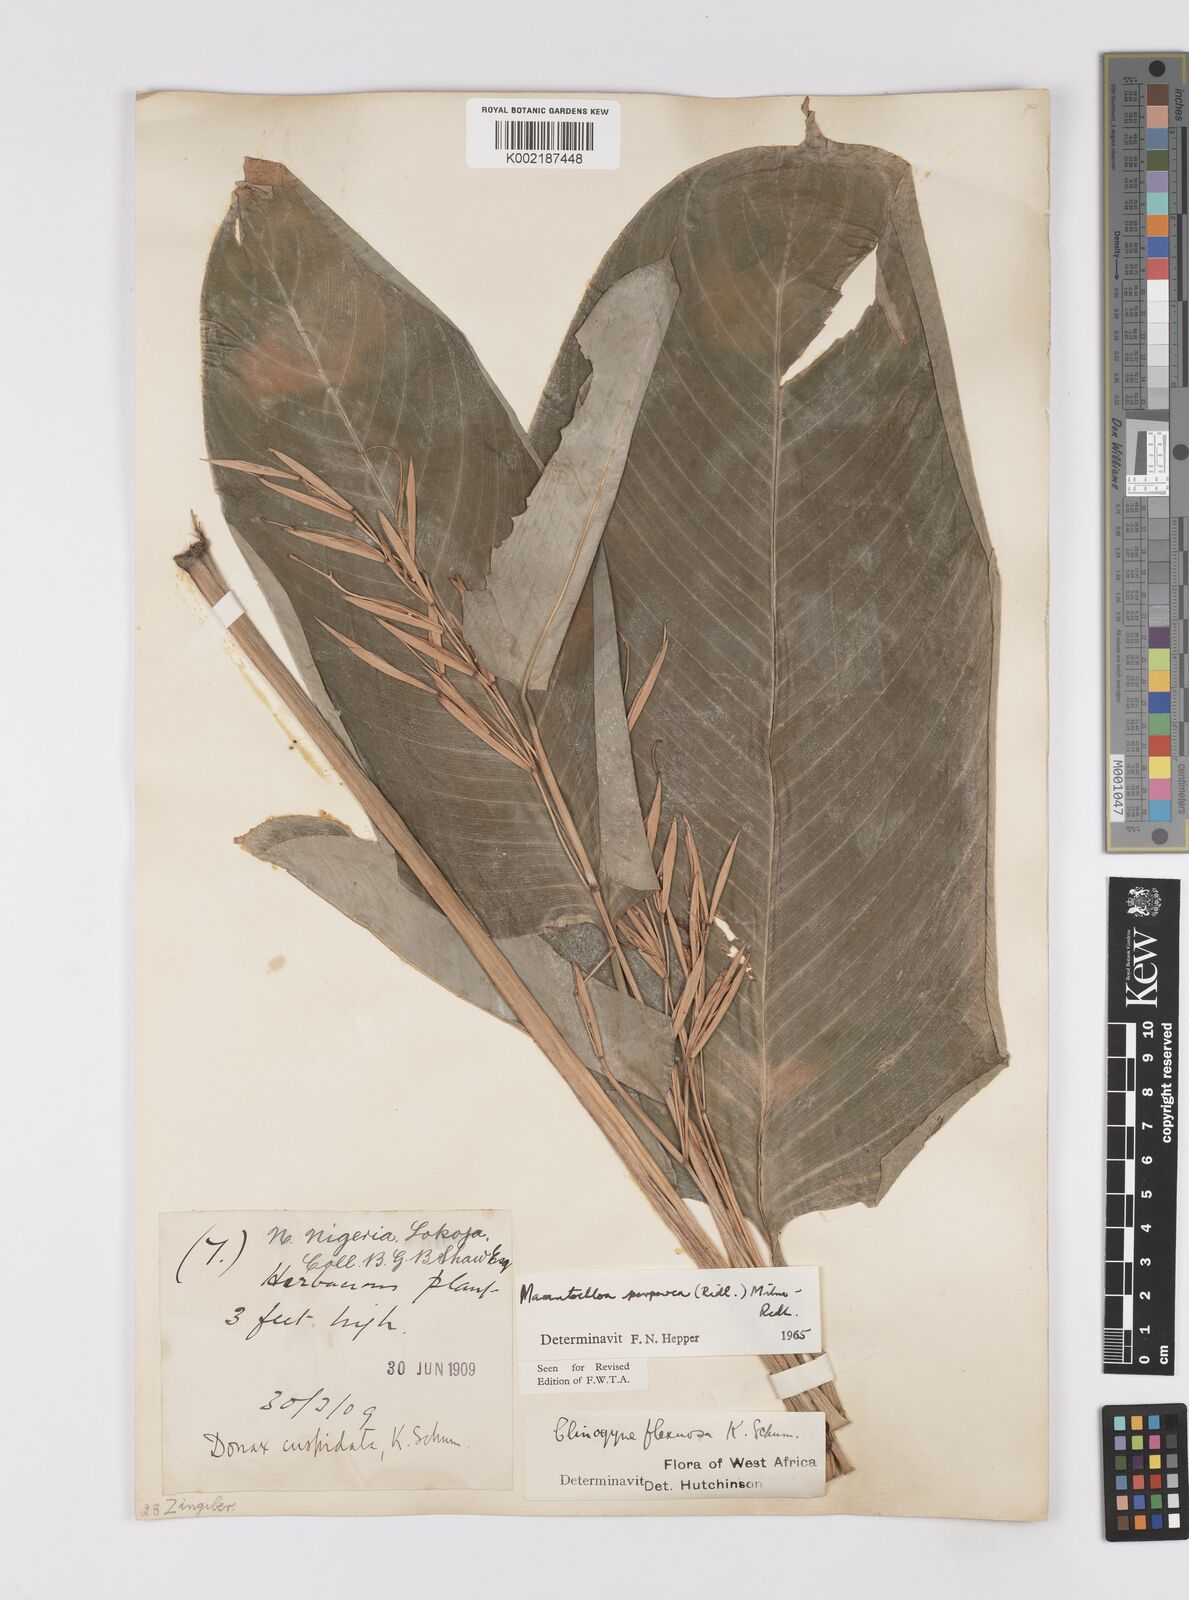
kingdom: Plantae
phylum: Tracheophyta
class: Liliopsida
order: Zingiberales
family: Marantaceae
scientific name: Marantaceae
